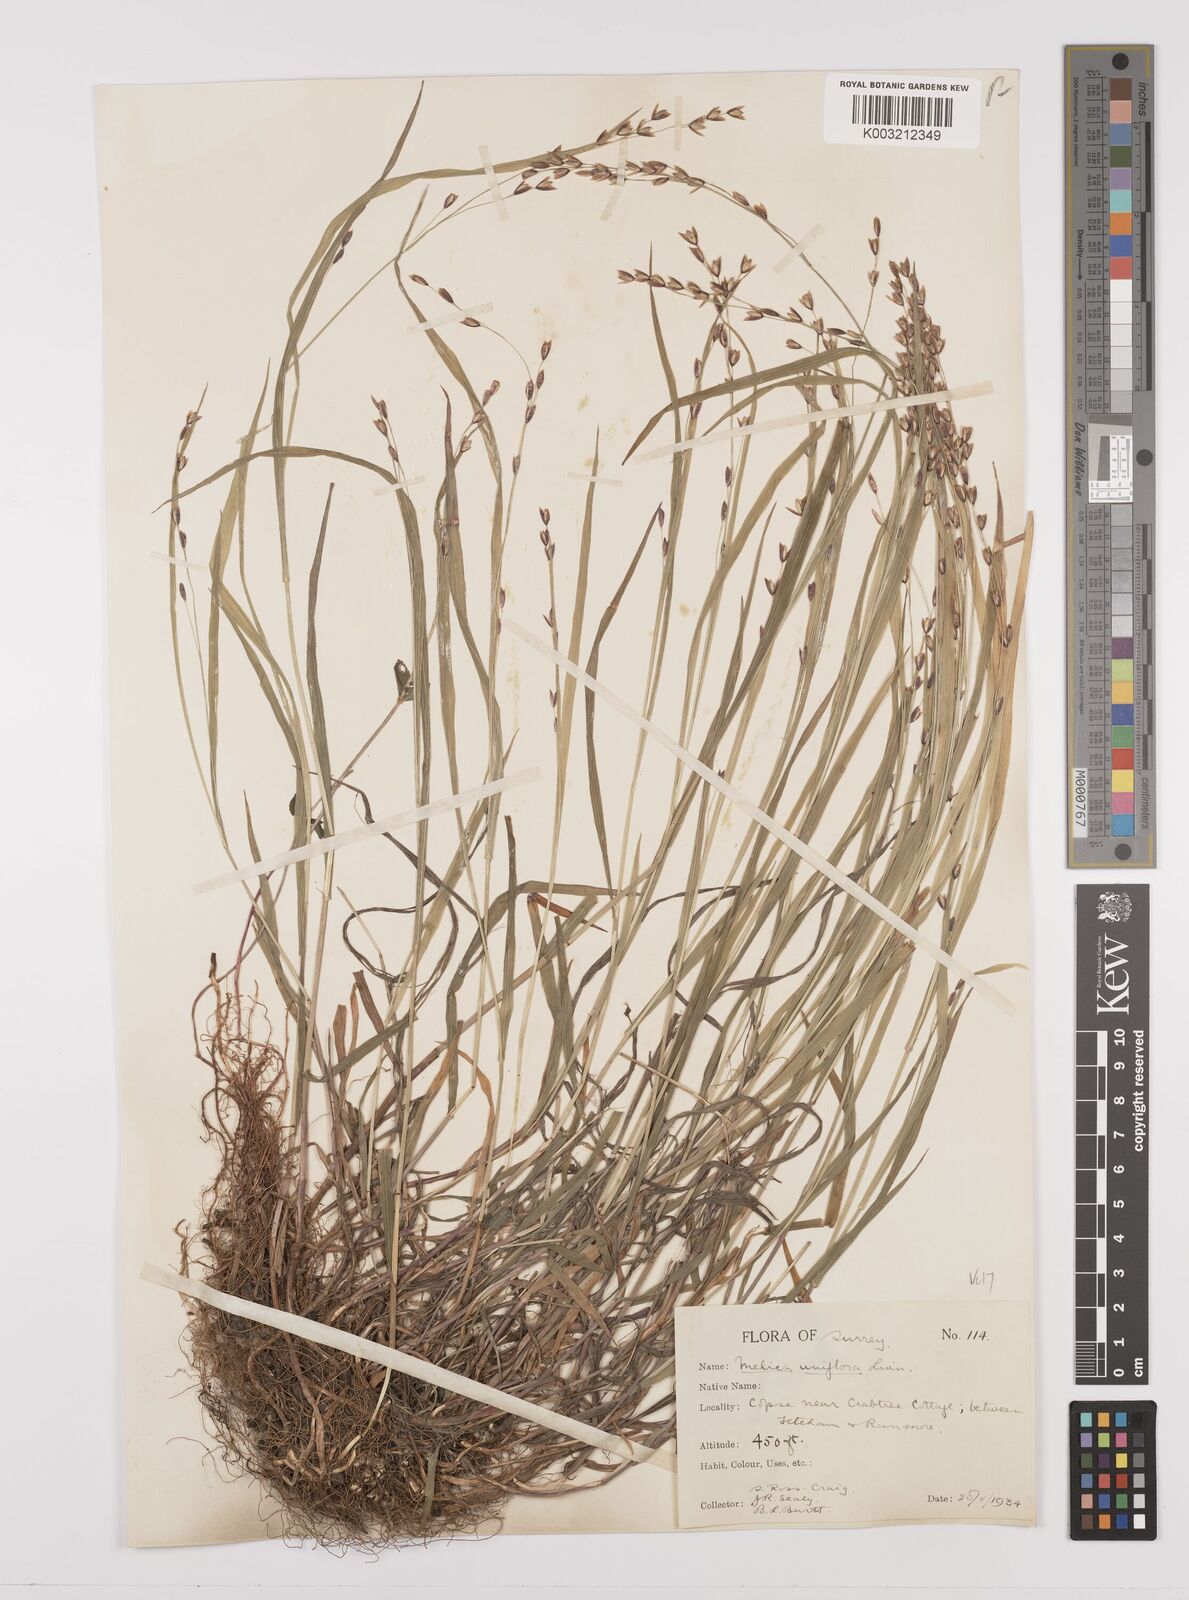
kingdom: Plantae
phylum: Tracheophyta
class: Liliopsida
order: Poales
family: Poaceae
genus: Melica
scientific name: Melica uniflora
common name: Wood melick
